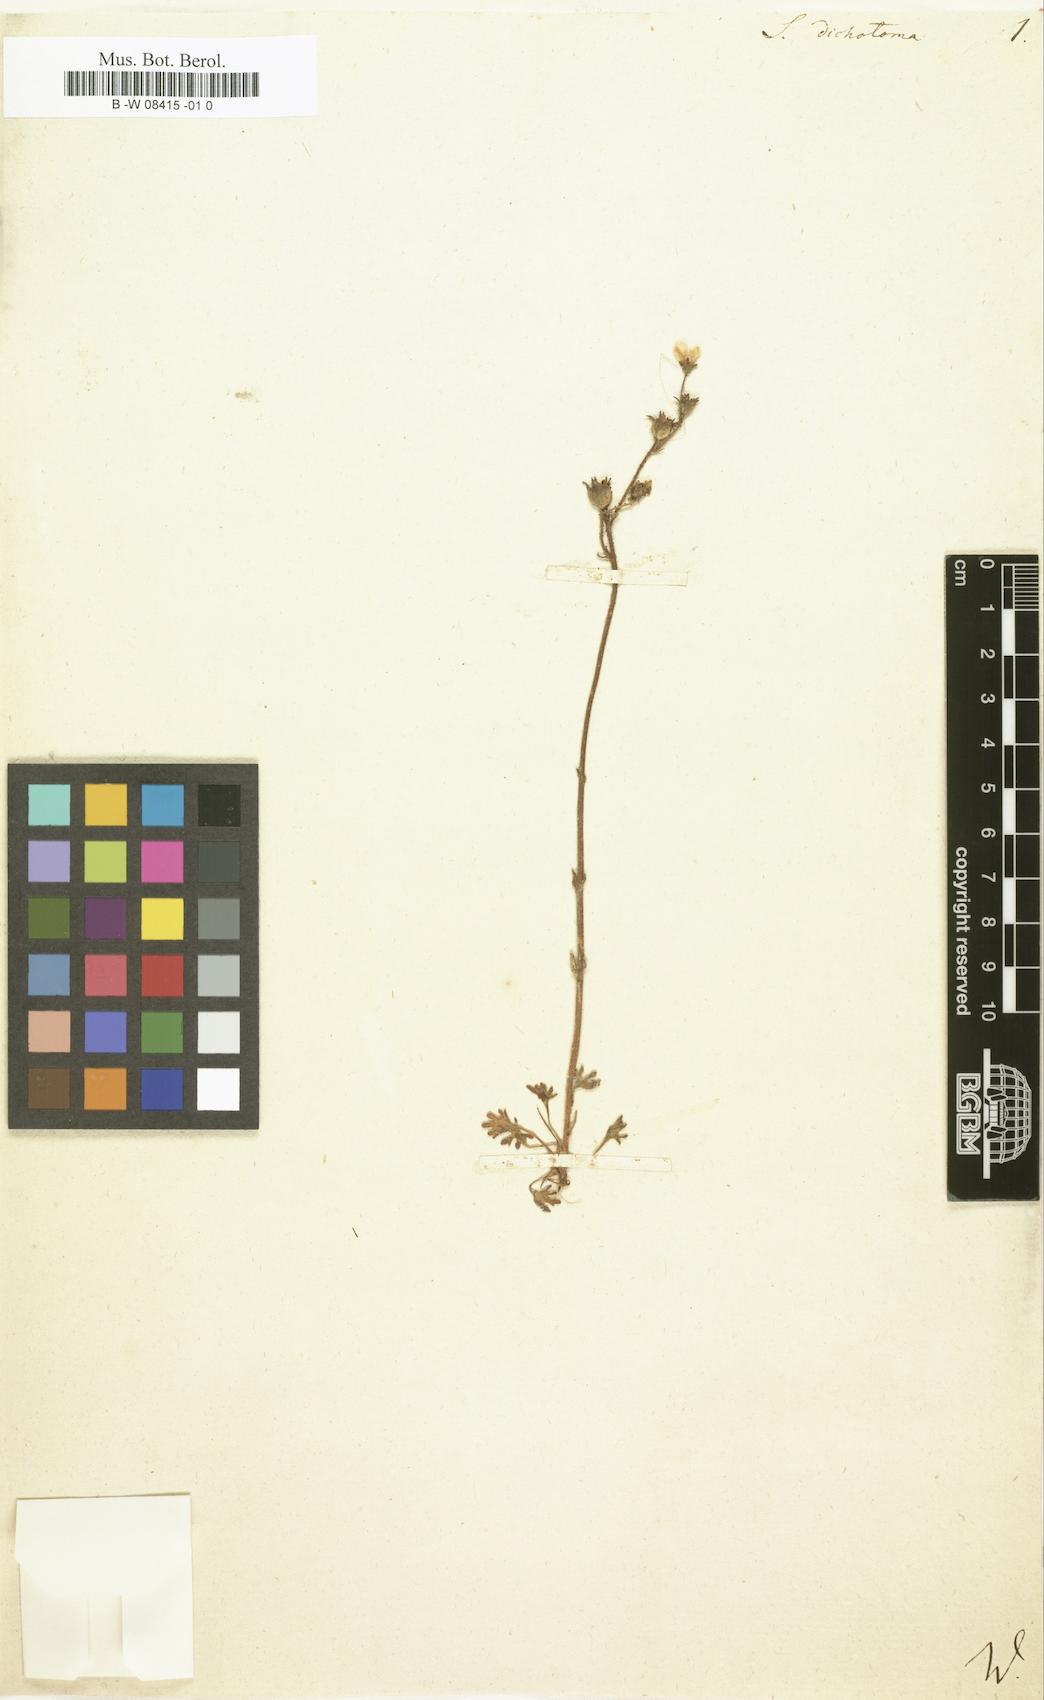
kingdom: Plantae
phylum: Tracheophyta
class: Magnoliopsida
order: Saxifragales
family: Saxifragaceae
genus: Saxifraga
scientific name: Saxifraga dichotoma
